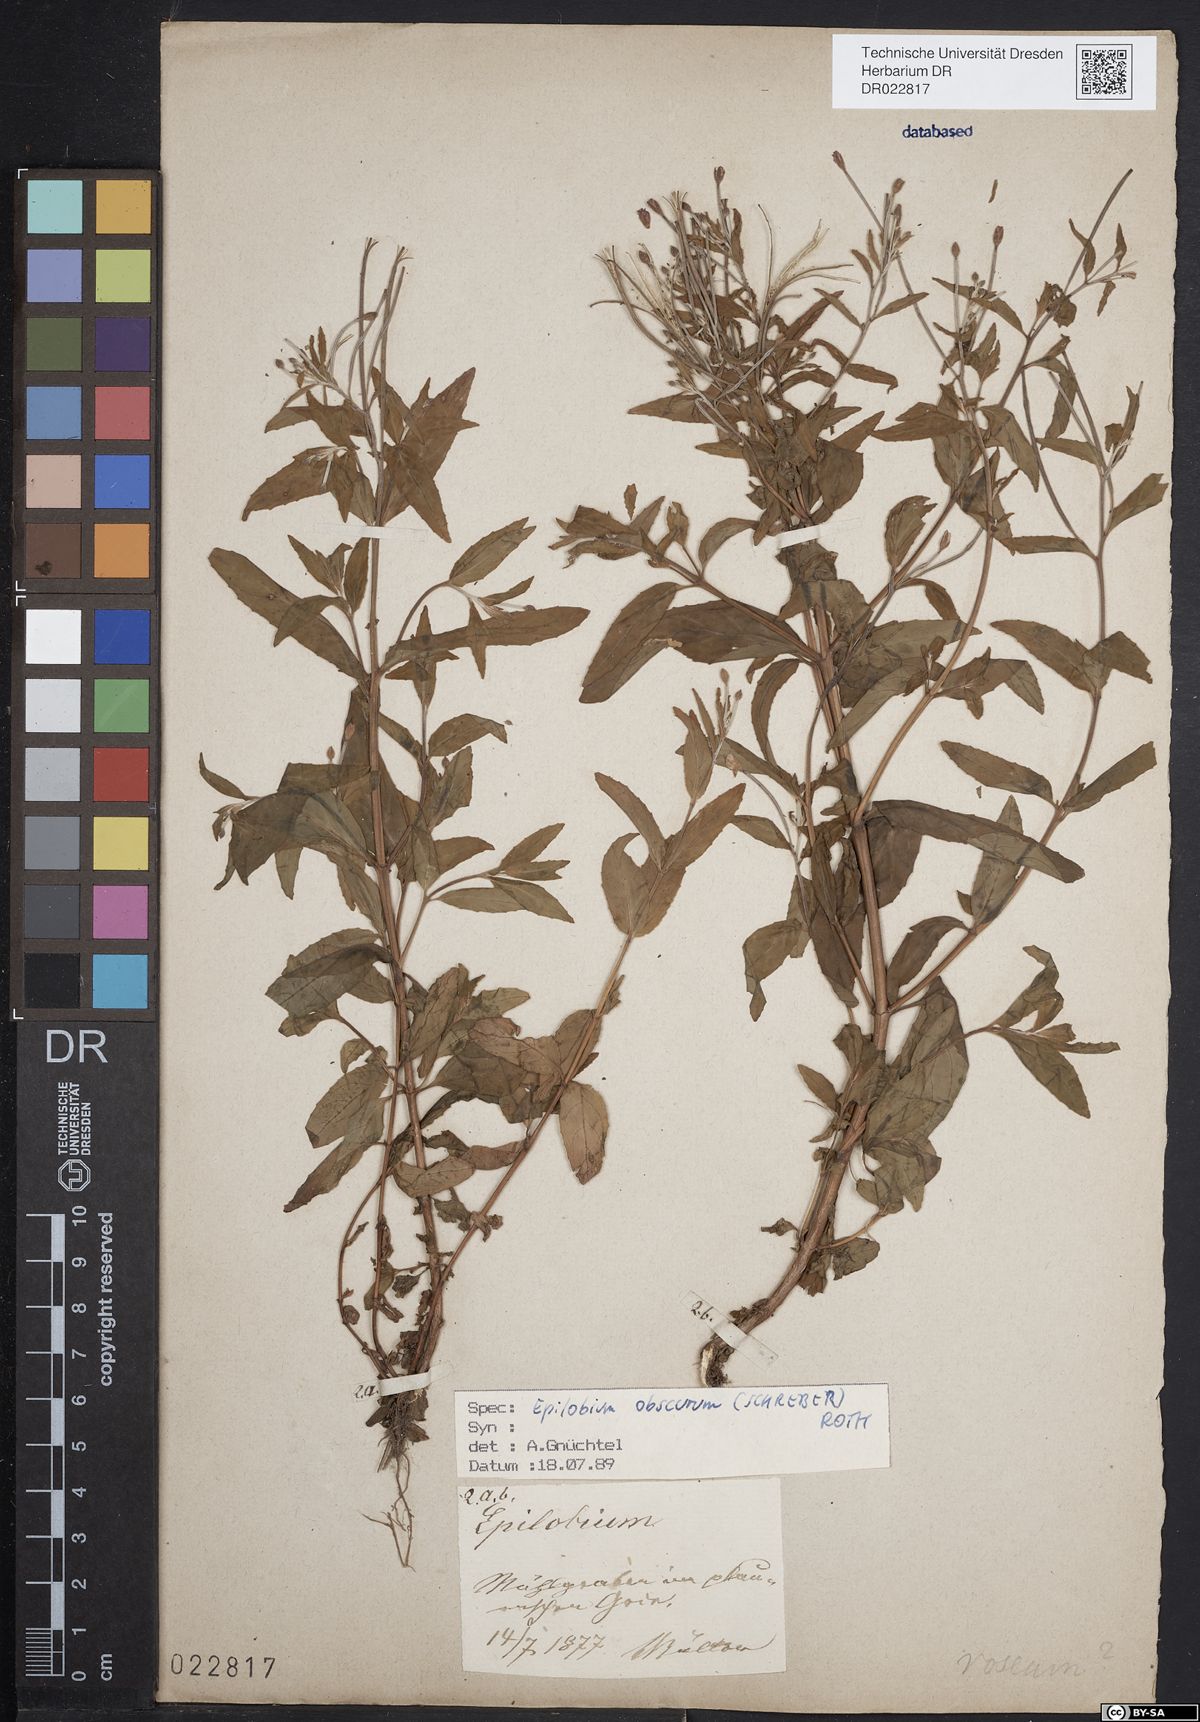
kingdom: Plantae
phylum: Tracheophyta
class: Magnoliopsida
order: Myrtales
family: Onagraceae
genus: Epilobium
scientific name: Epilobium obscurum
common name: Short-fruited willowherb
